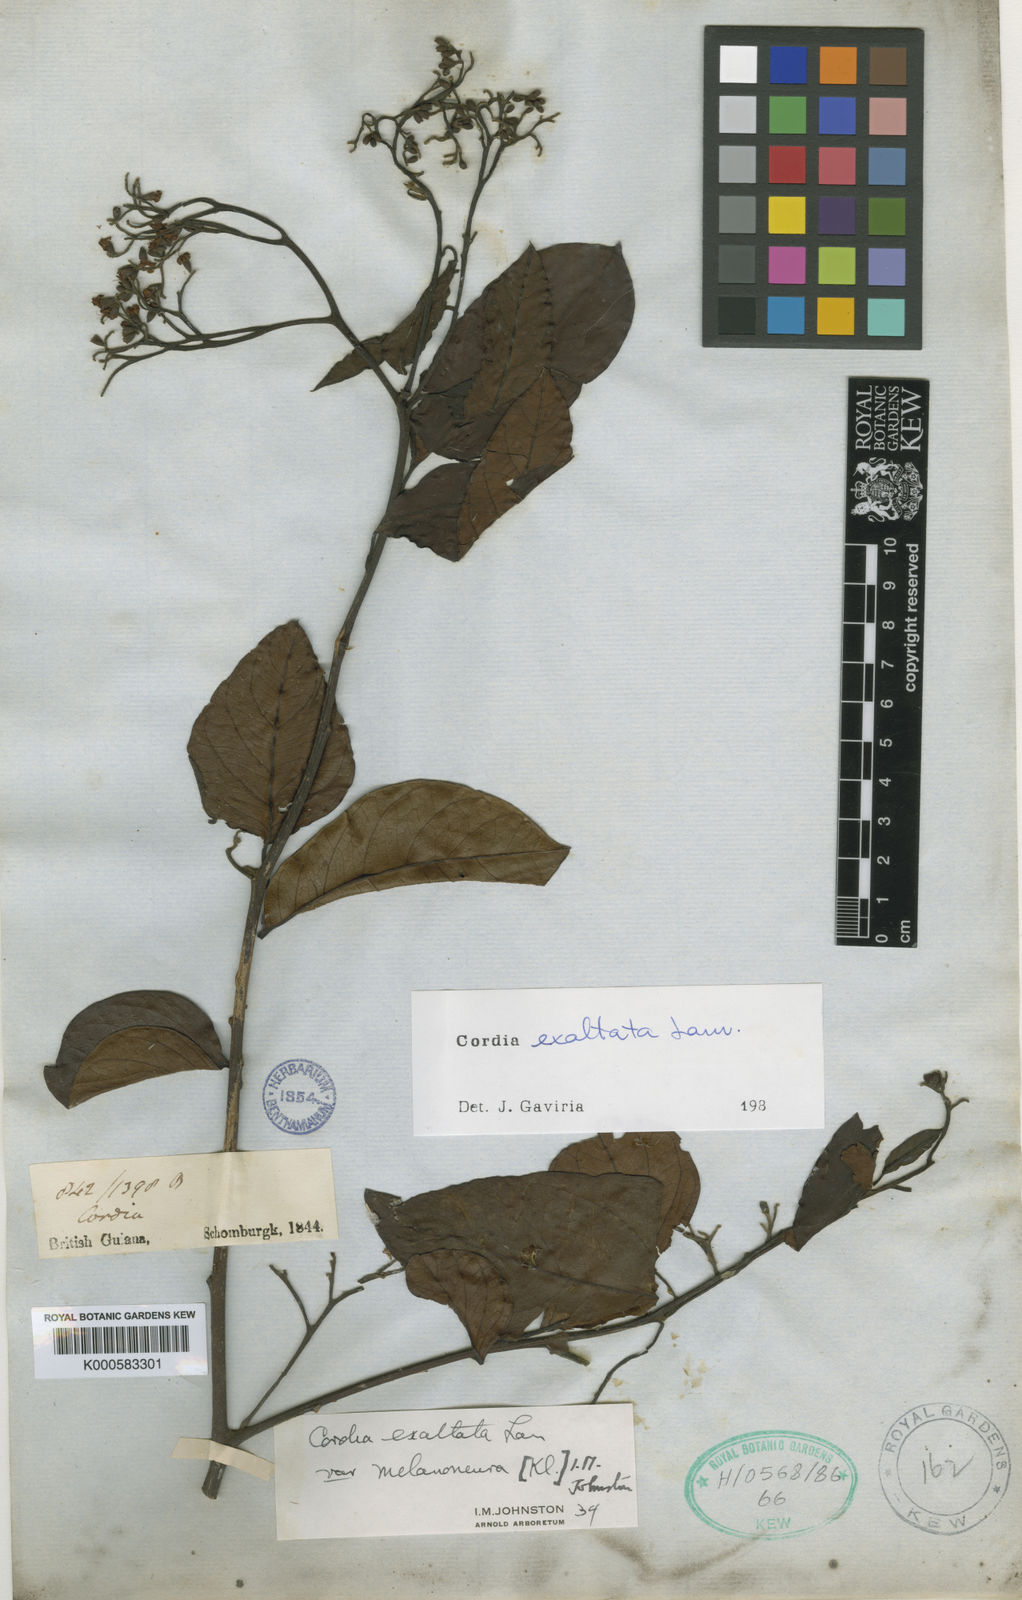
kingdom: Plantae
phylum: Tracheophyta
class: Magnoliopsida
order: Boraginales
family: Cordiaceae
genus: Cordia
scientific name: Cordia exaltata
